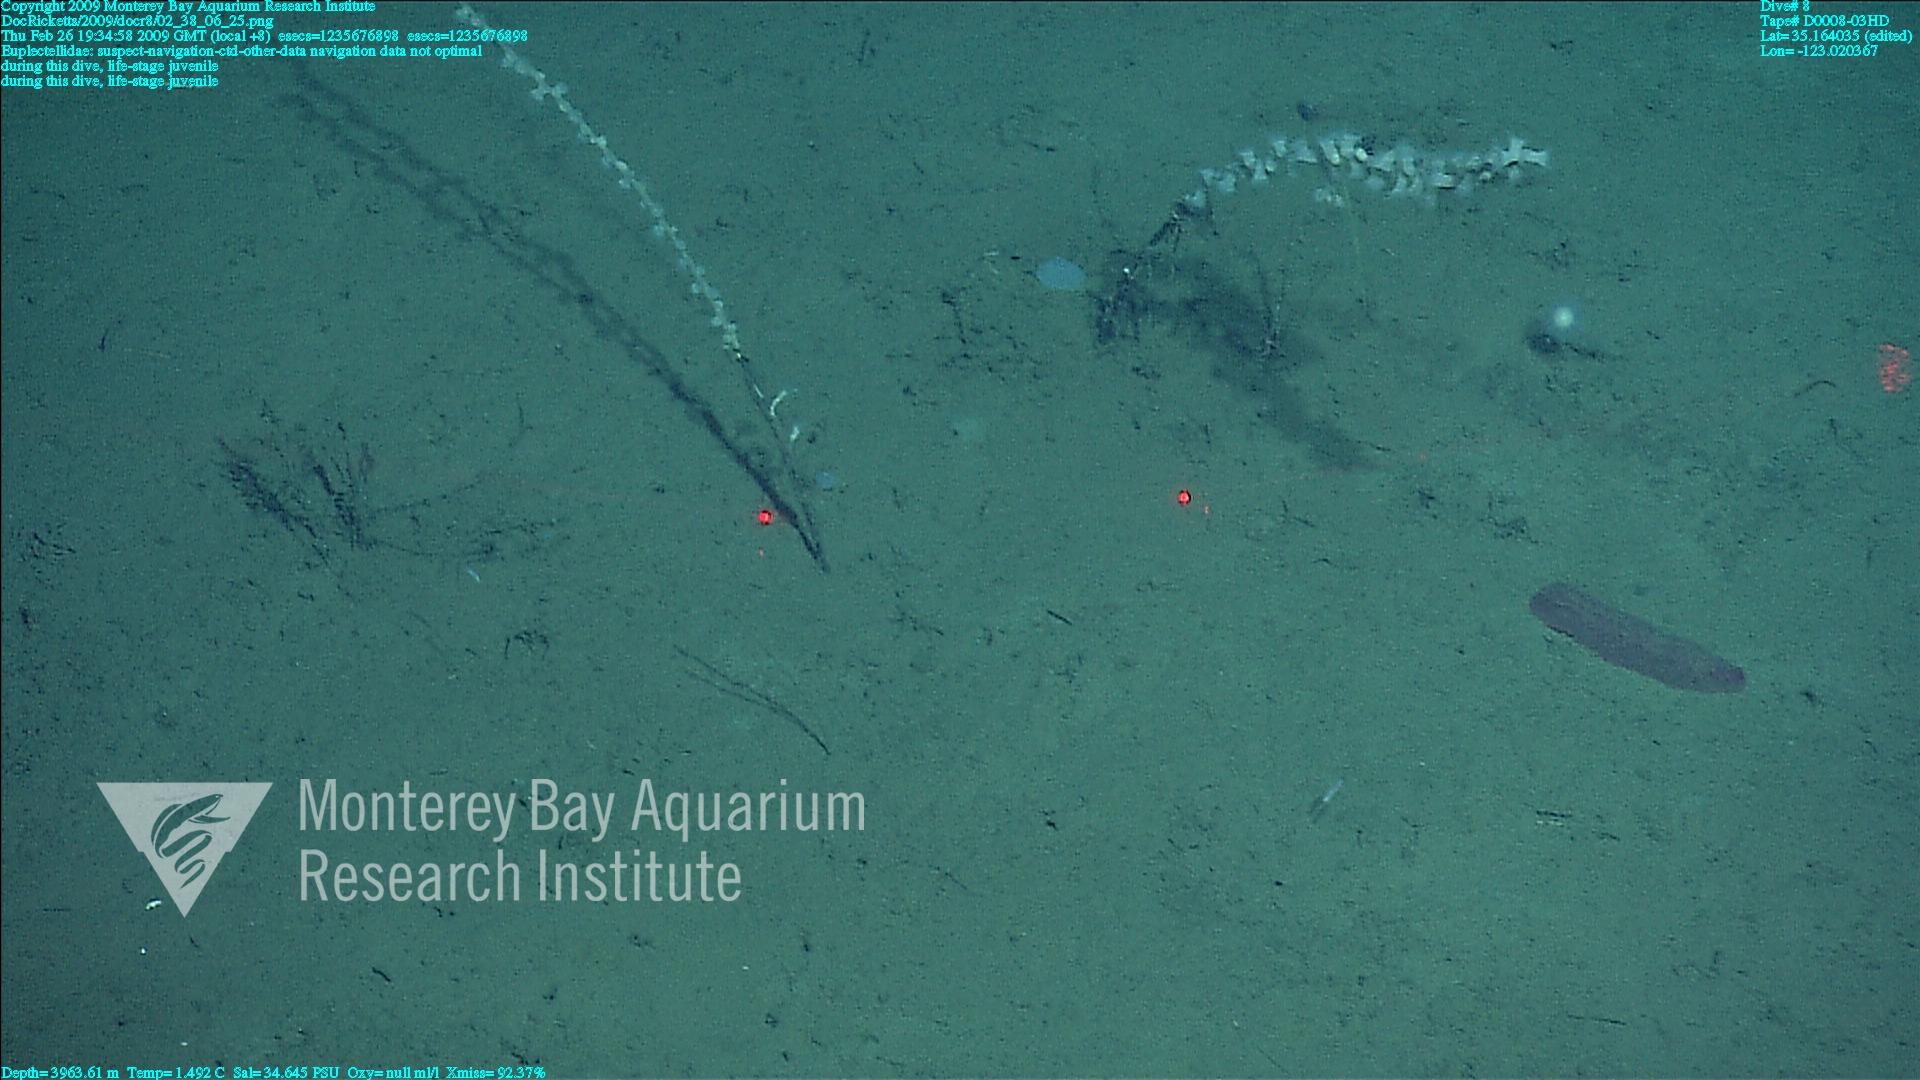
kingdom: Animalia
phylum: Porifera
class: Hexactinellida
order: Lyssacinosida
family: Euplectellidae
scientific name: Euplectellidae
